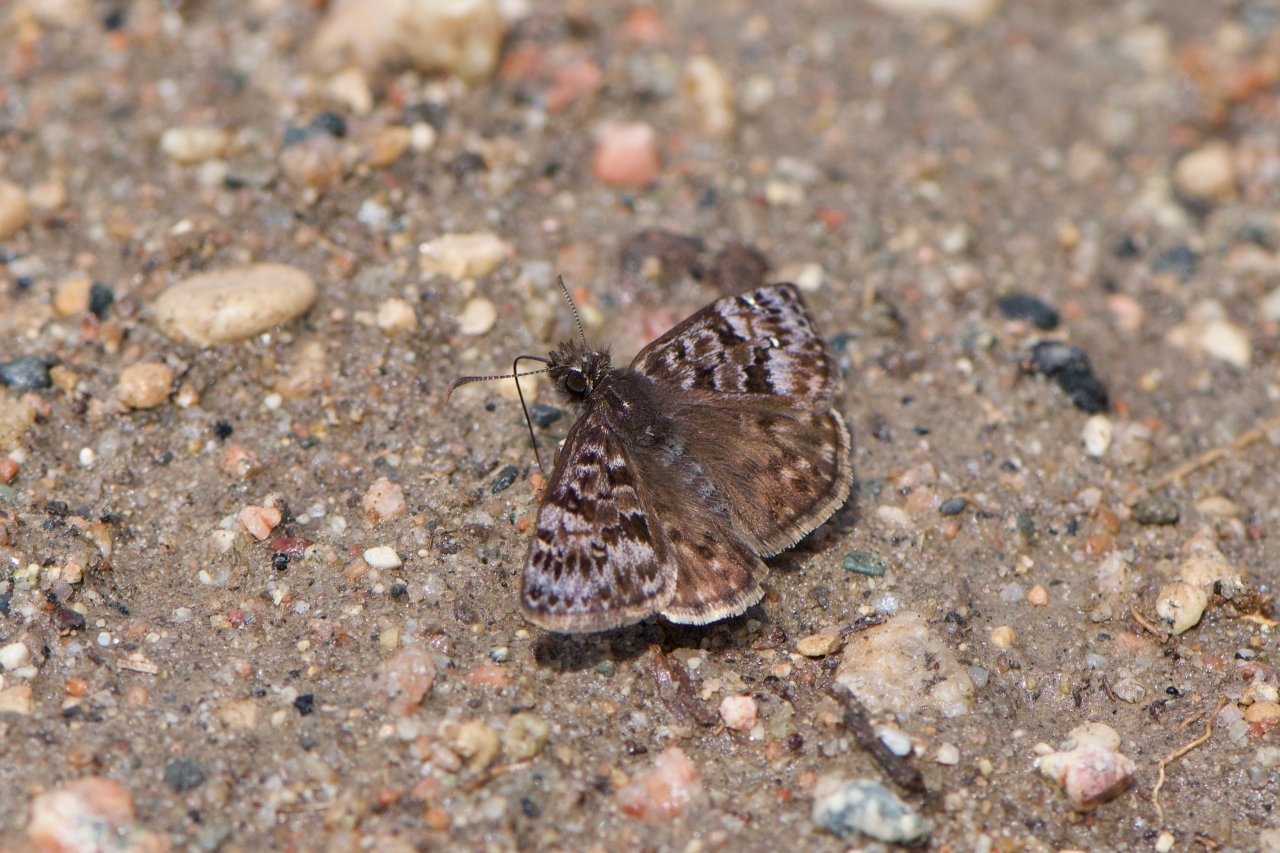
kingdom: Animalia
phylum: Arthropoda
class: Insecta
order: Lepidoptera
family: Hesperiidae
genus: Erynnis
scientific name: Erynnis martialis
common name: Mottled Duskywing
